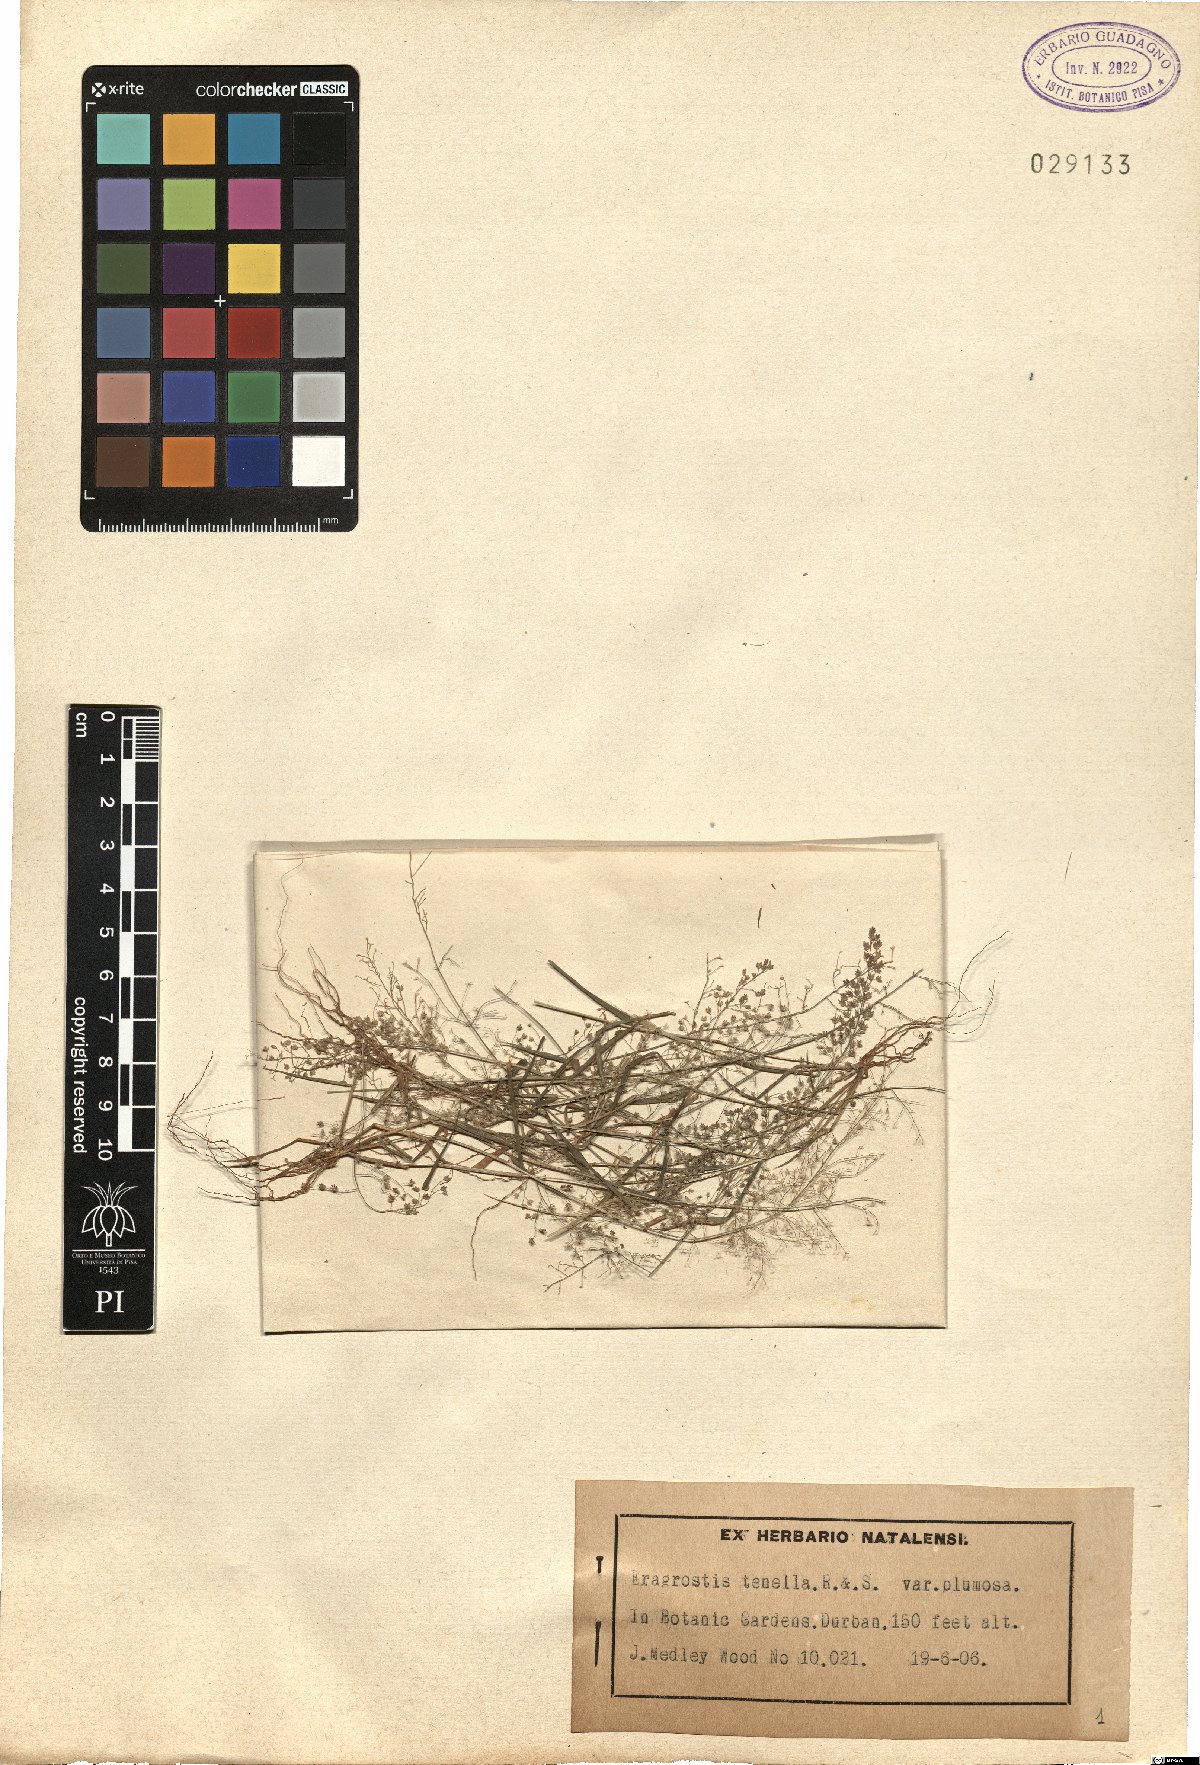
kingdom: Plantae
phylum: Tracheophyta
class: Liliopsida
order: Poales
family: Poaceae
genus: Eragrostis
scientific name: Eragrostis tenella
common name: Japanese lovegrass
